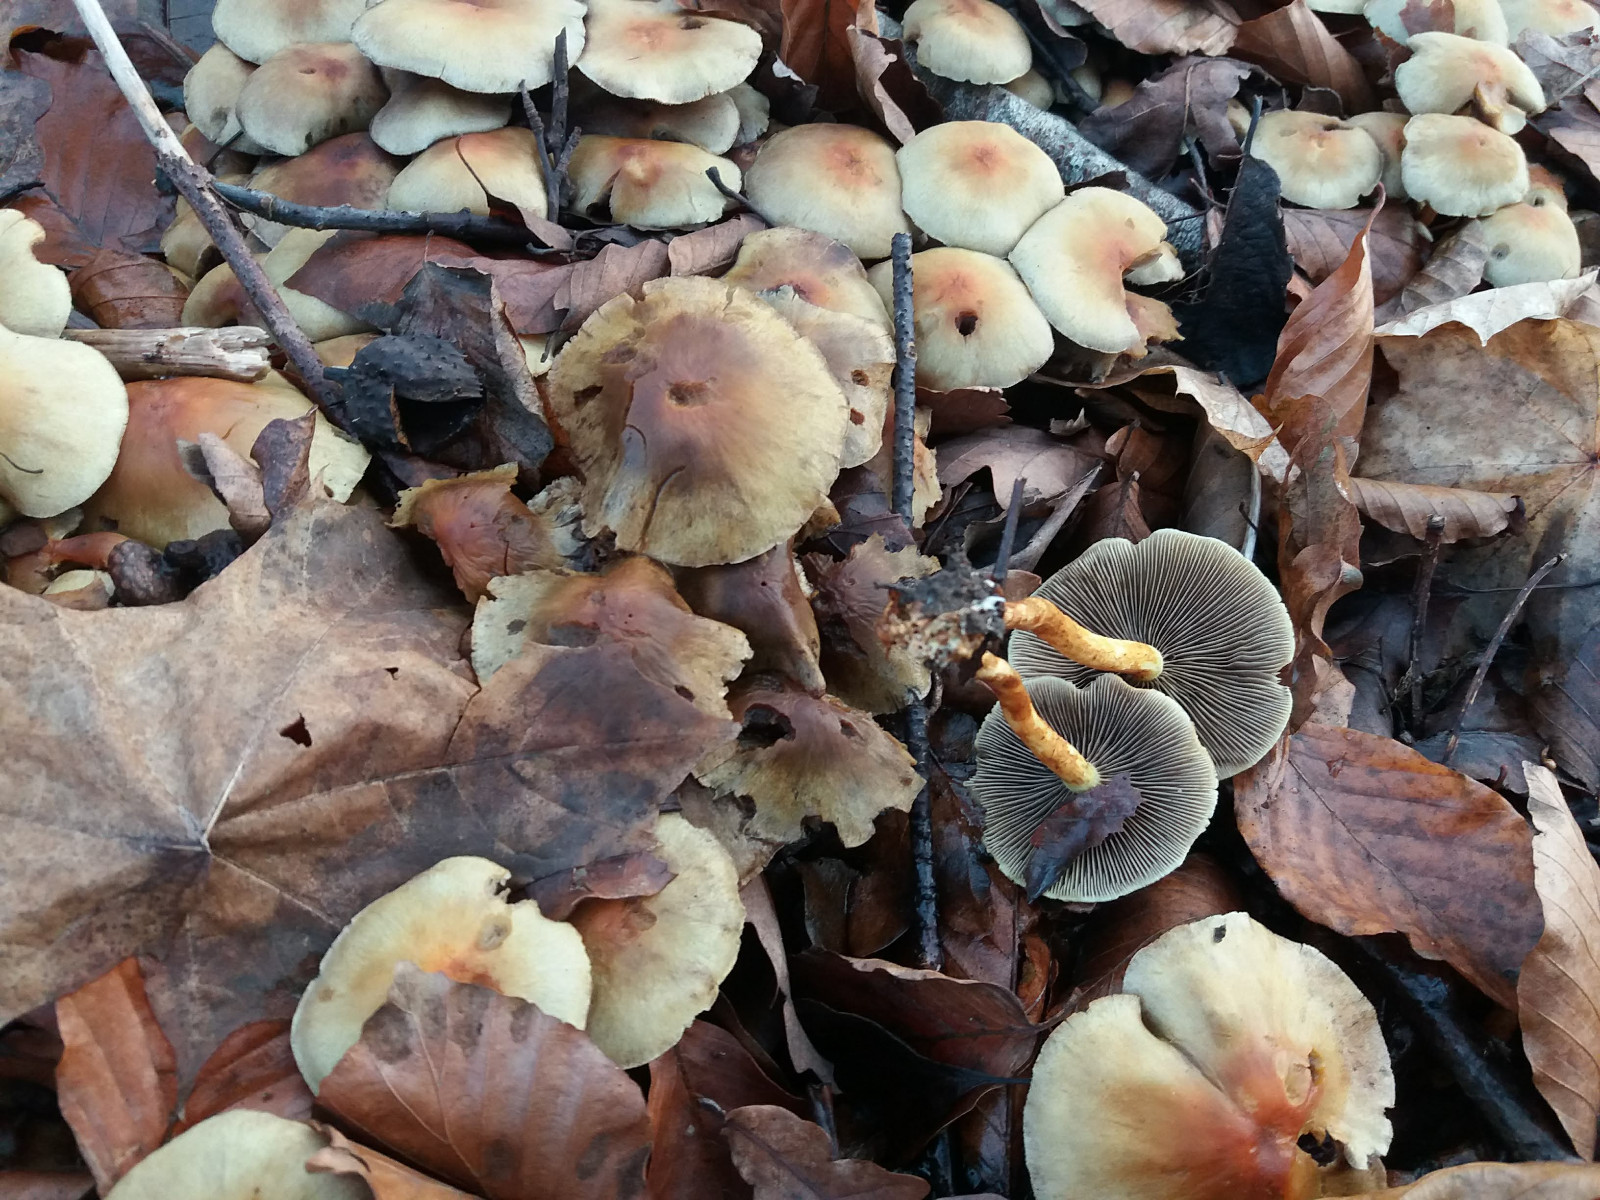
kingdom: Fungi
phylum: Basidiomycota
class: Agaricomycetes
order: Agaricales
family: Strophariaceae
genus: Hypholoma
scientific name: Hypholoma fasciculare
